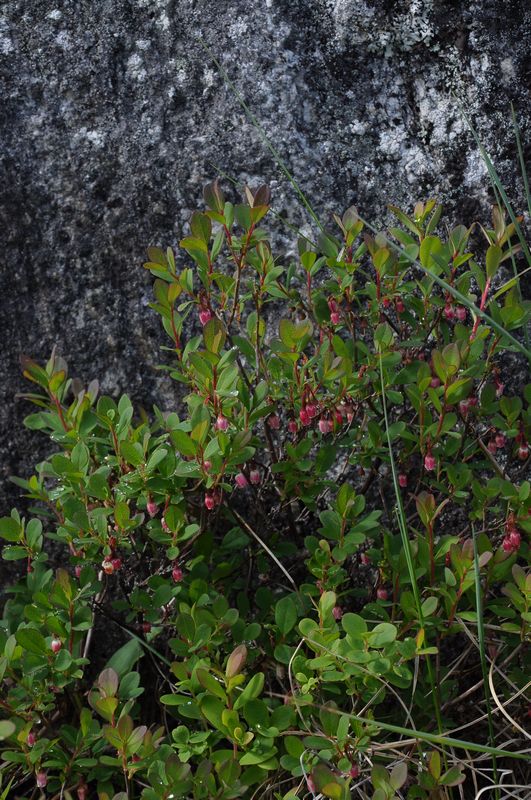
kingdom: Plantae
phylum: Tracheophyta
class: Magnoliopsida
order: Ericales
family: Ericaceae
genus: Vaccinium
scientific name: Vaccinium uliginosum
